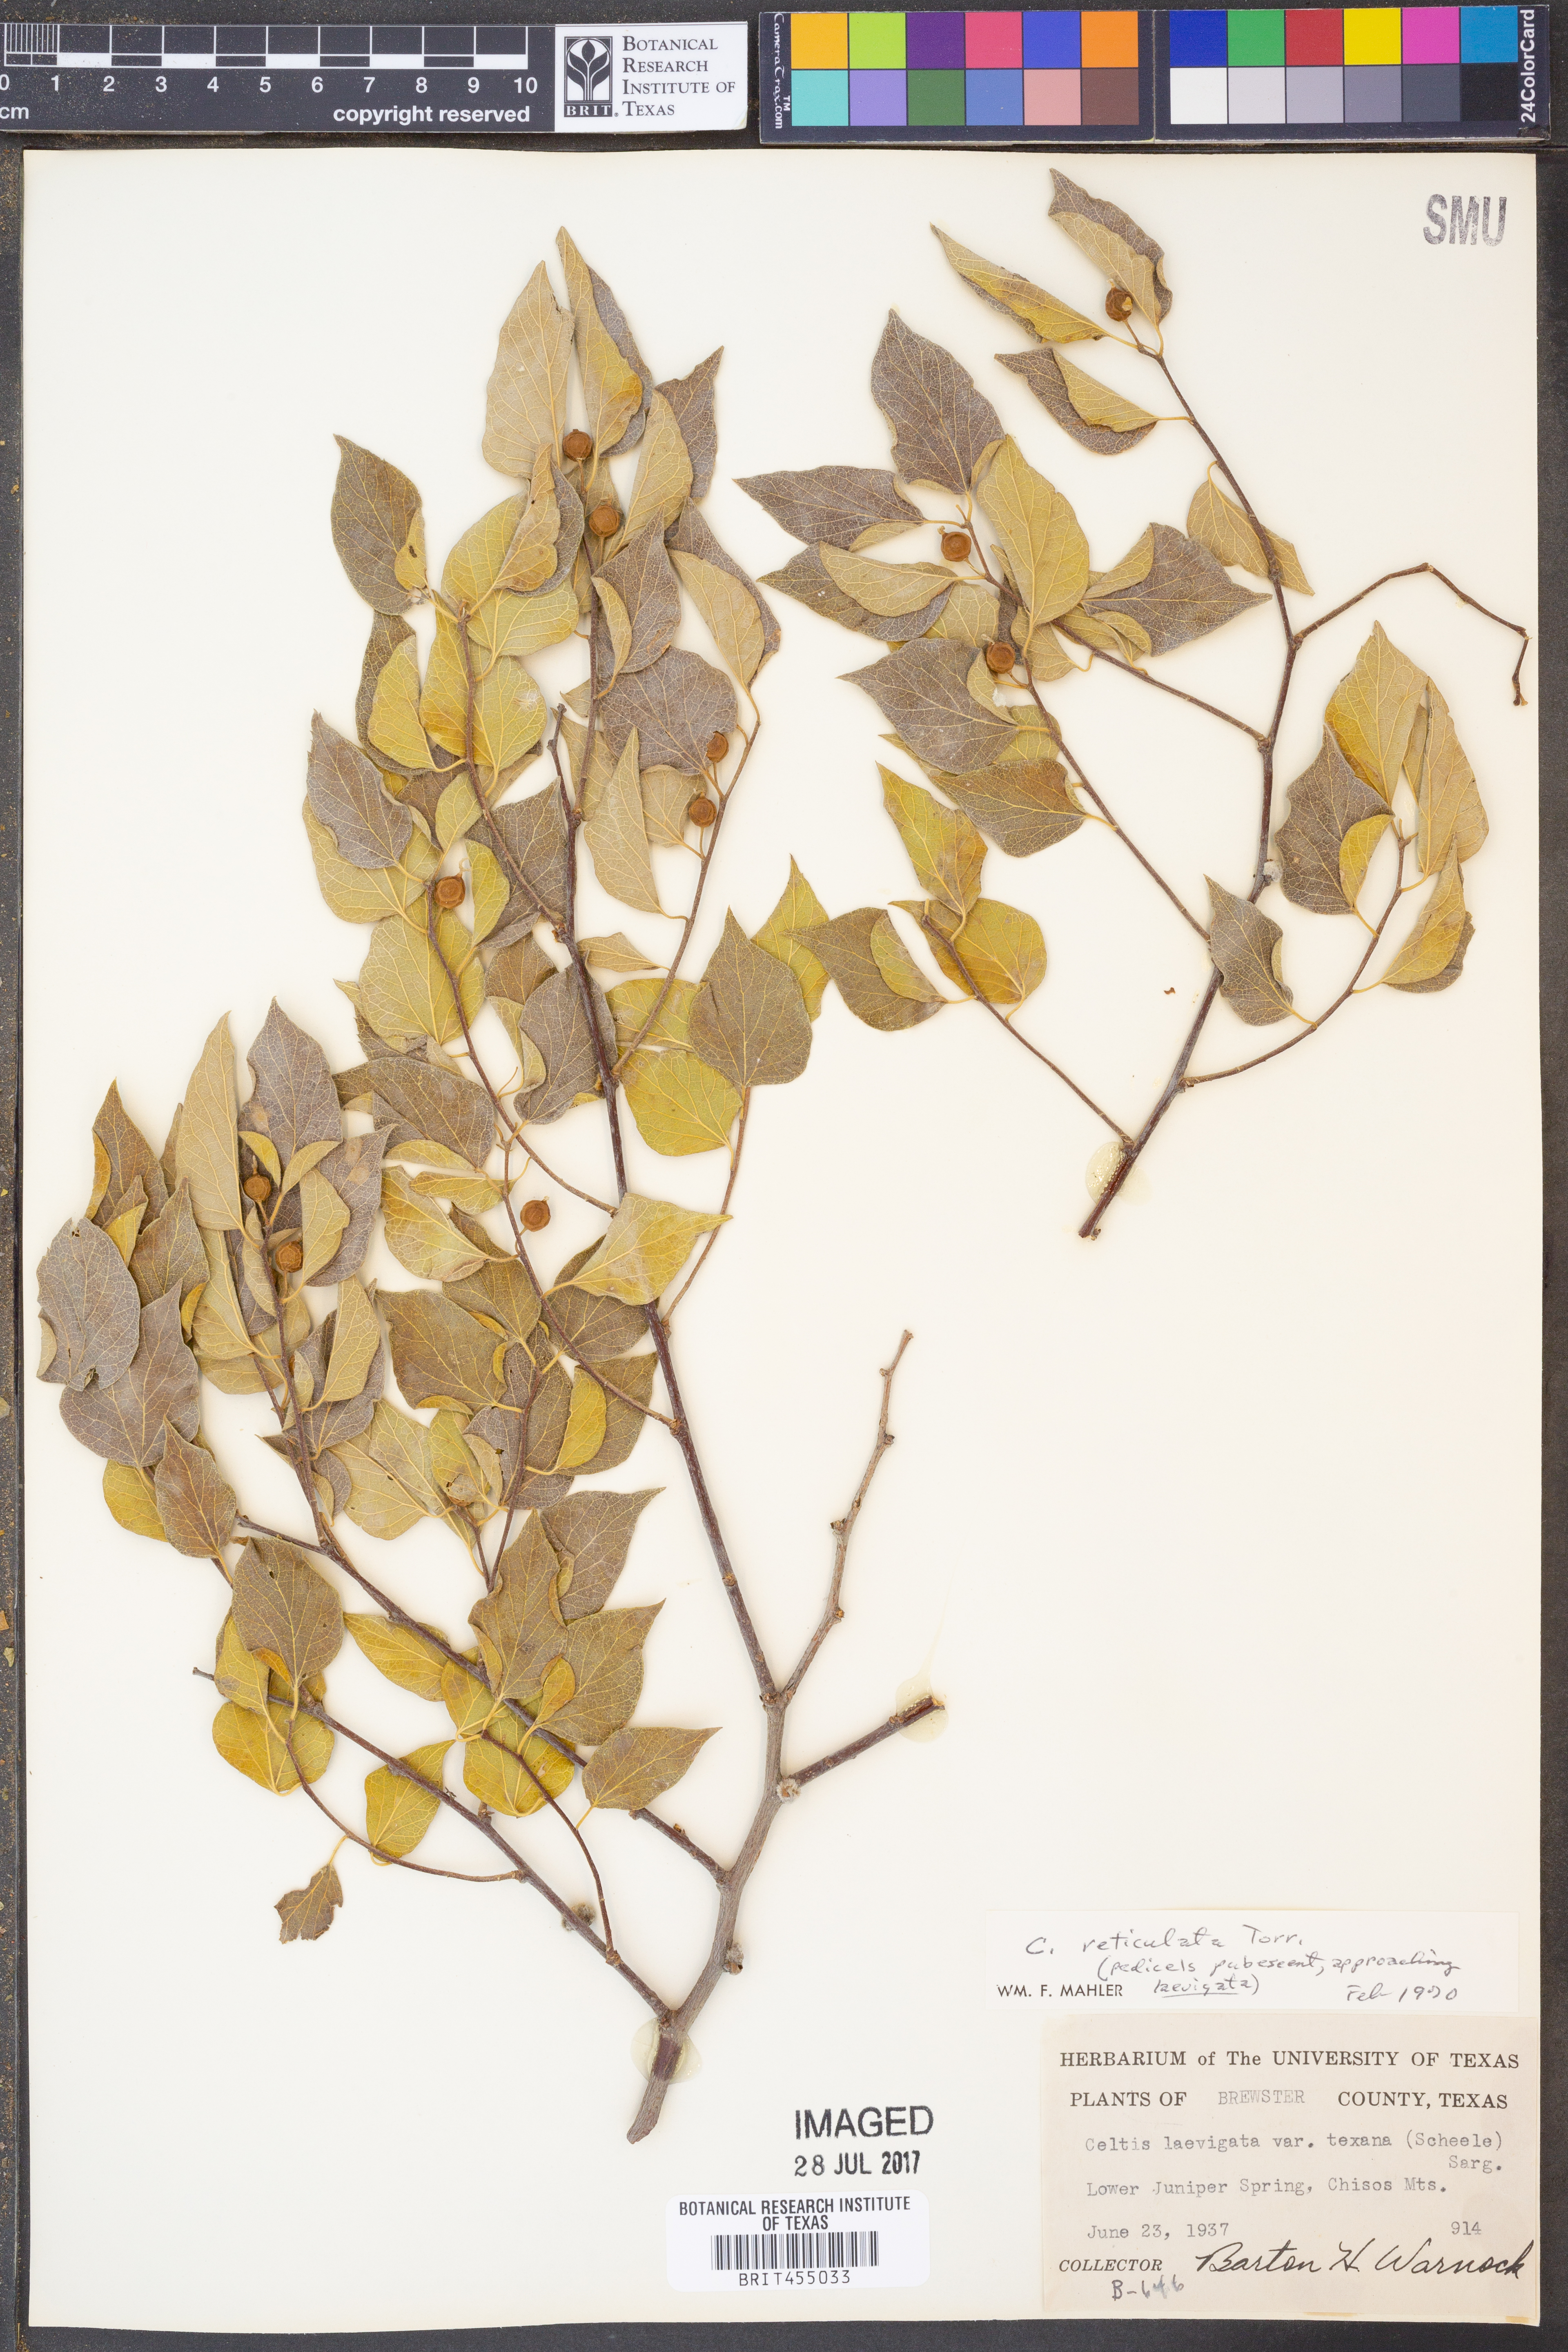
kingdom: Plantae
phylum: Tracheophyta
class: Magnoliopsida
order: Rosales
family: Cannabaceae
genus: Celtis
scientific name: Celtis reticulata
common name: Netleaf hackberry
